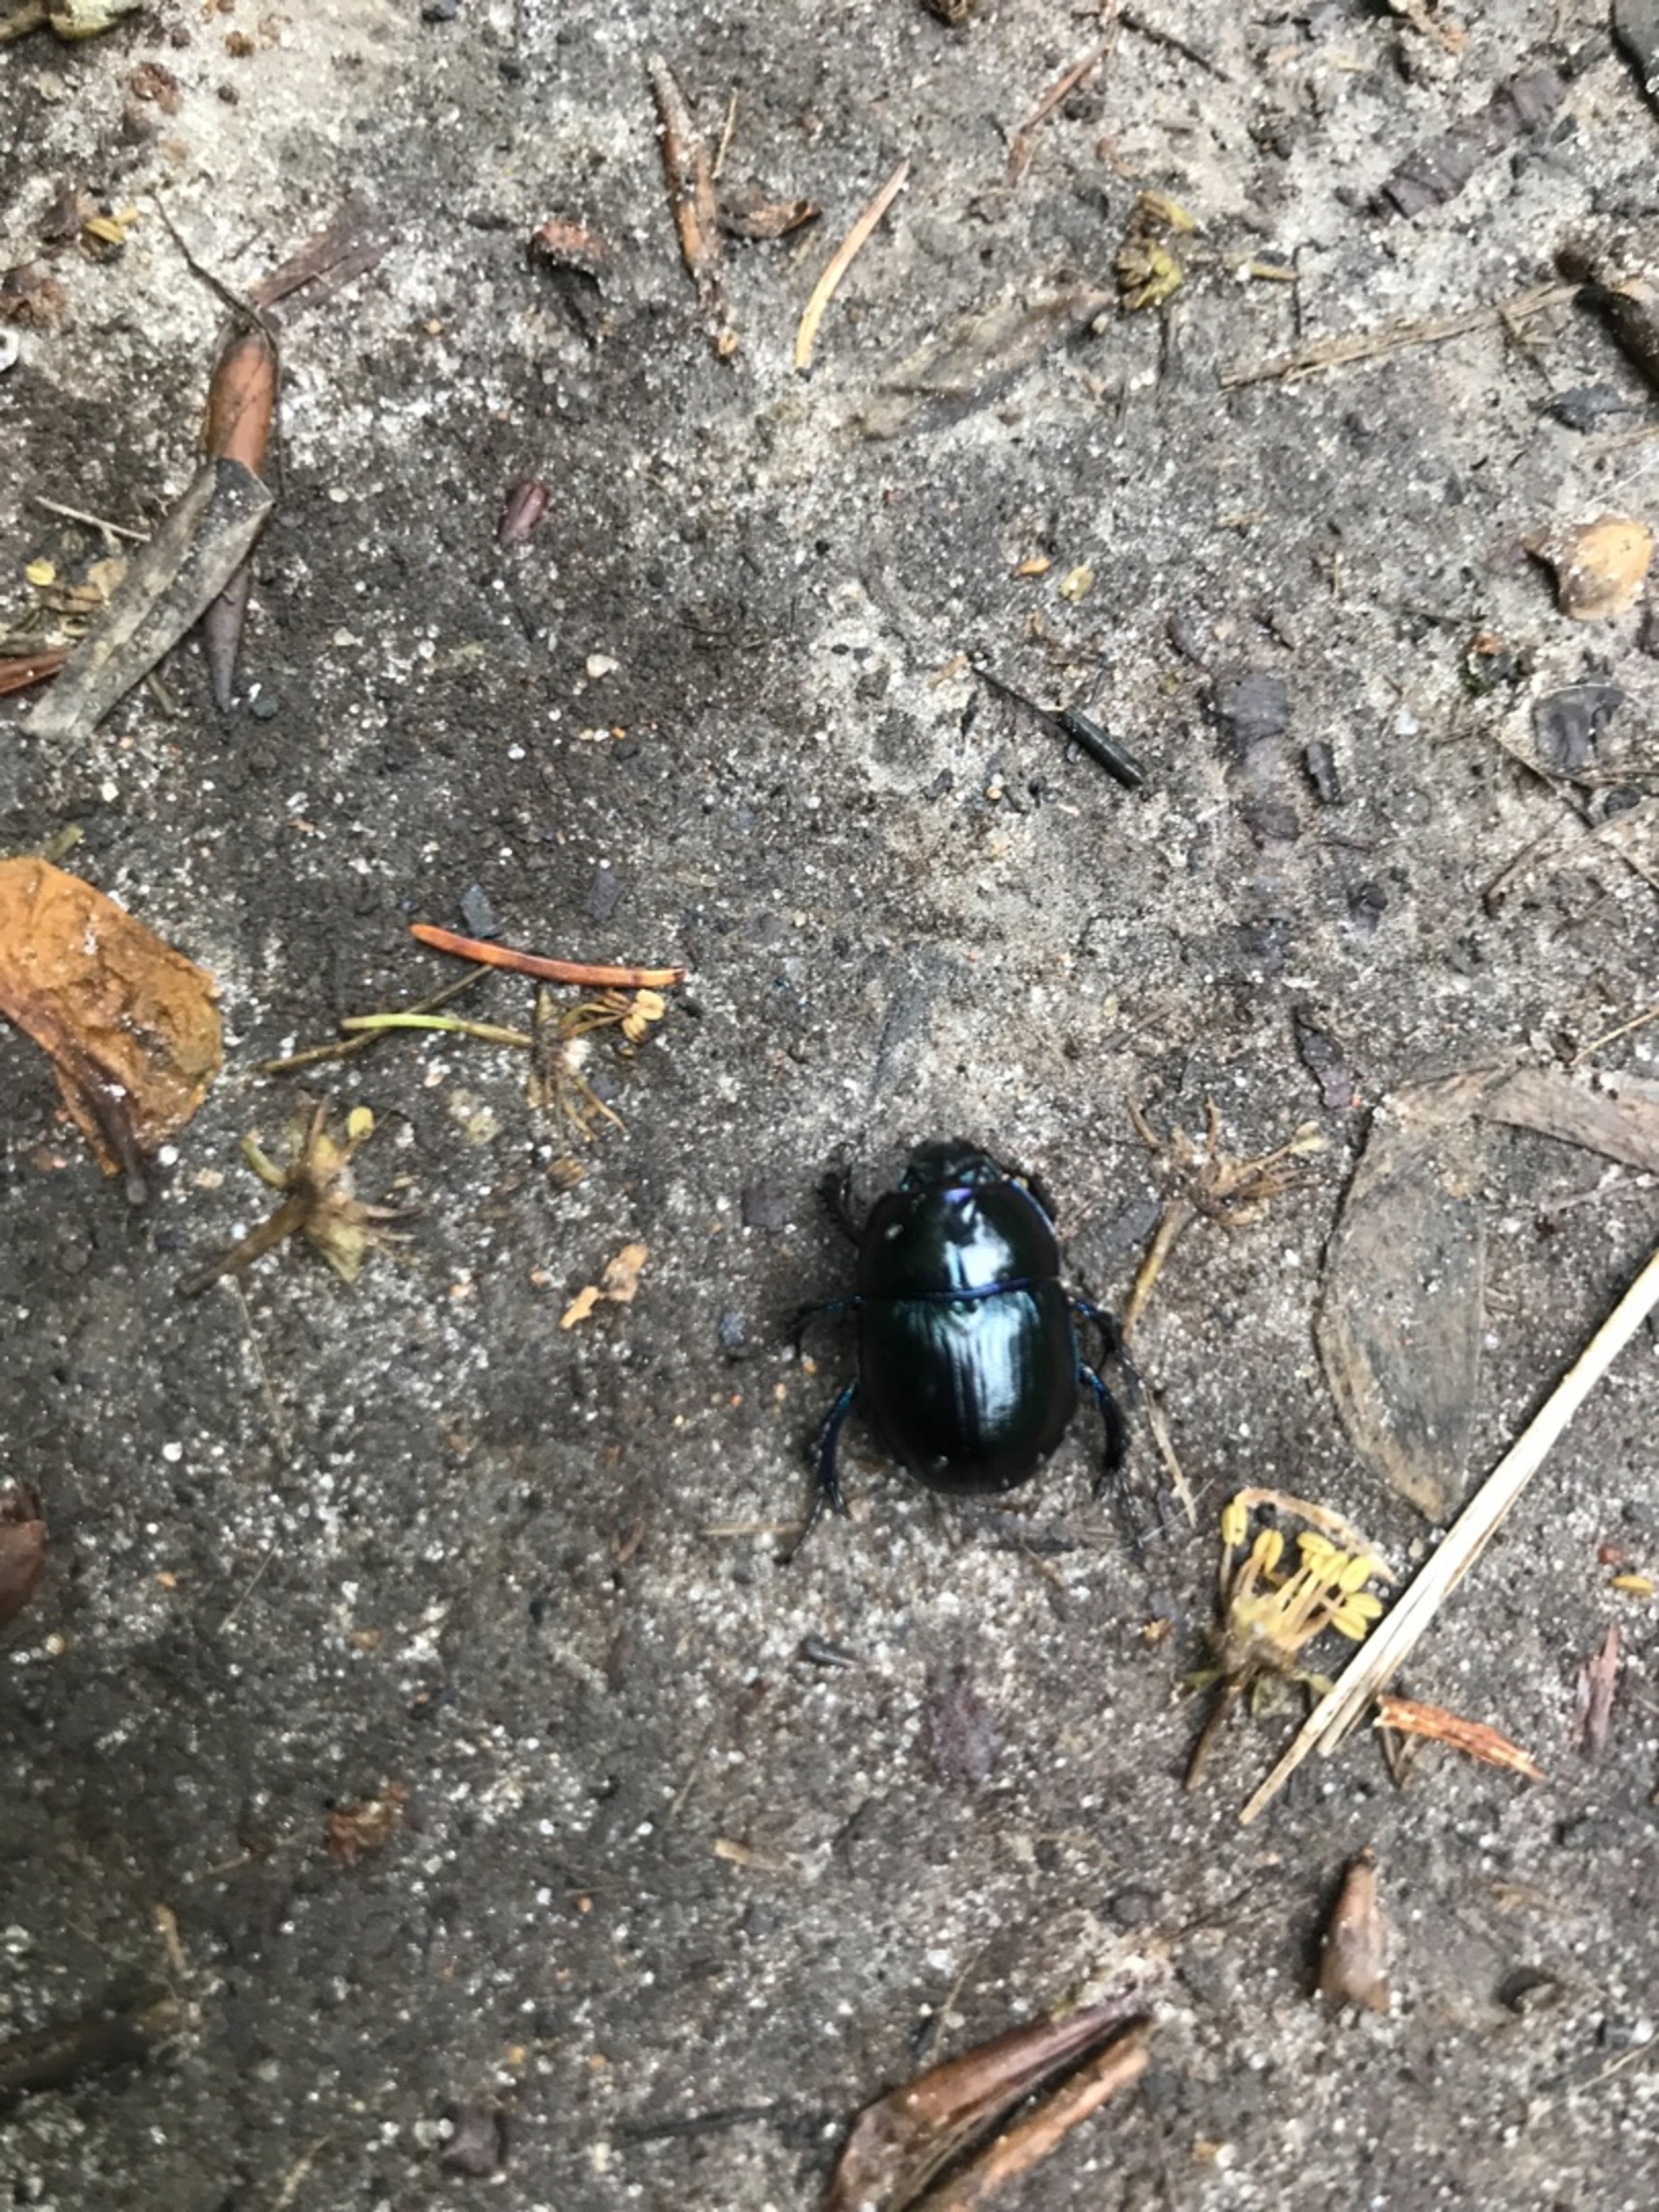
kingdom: Animalia
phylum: Arthropoda
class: Insecta
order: Coleoptera
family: Geotrupidae
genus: Anoplotrupes
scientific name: Anoplotrupes stercorosus
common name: Skovskarnbasse
